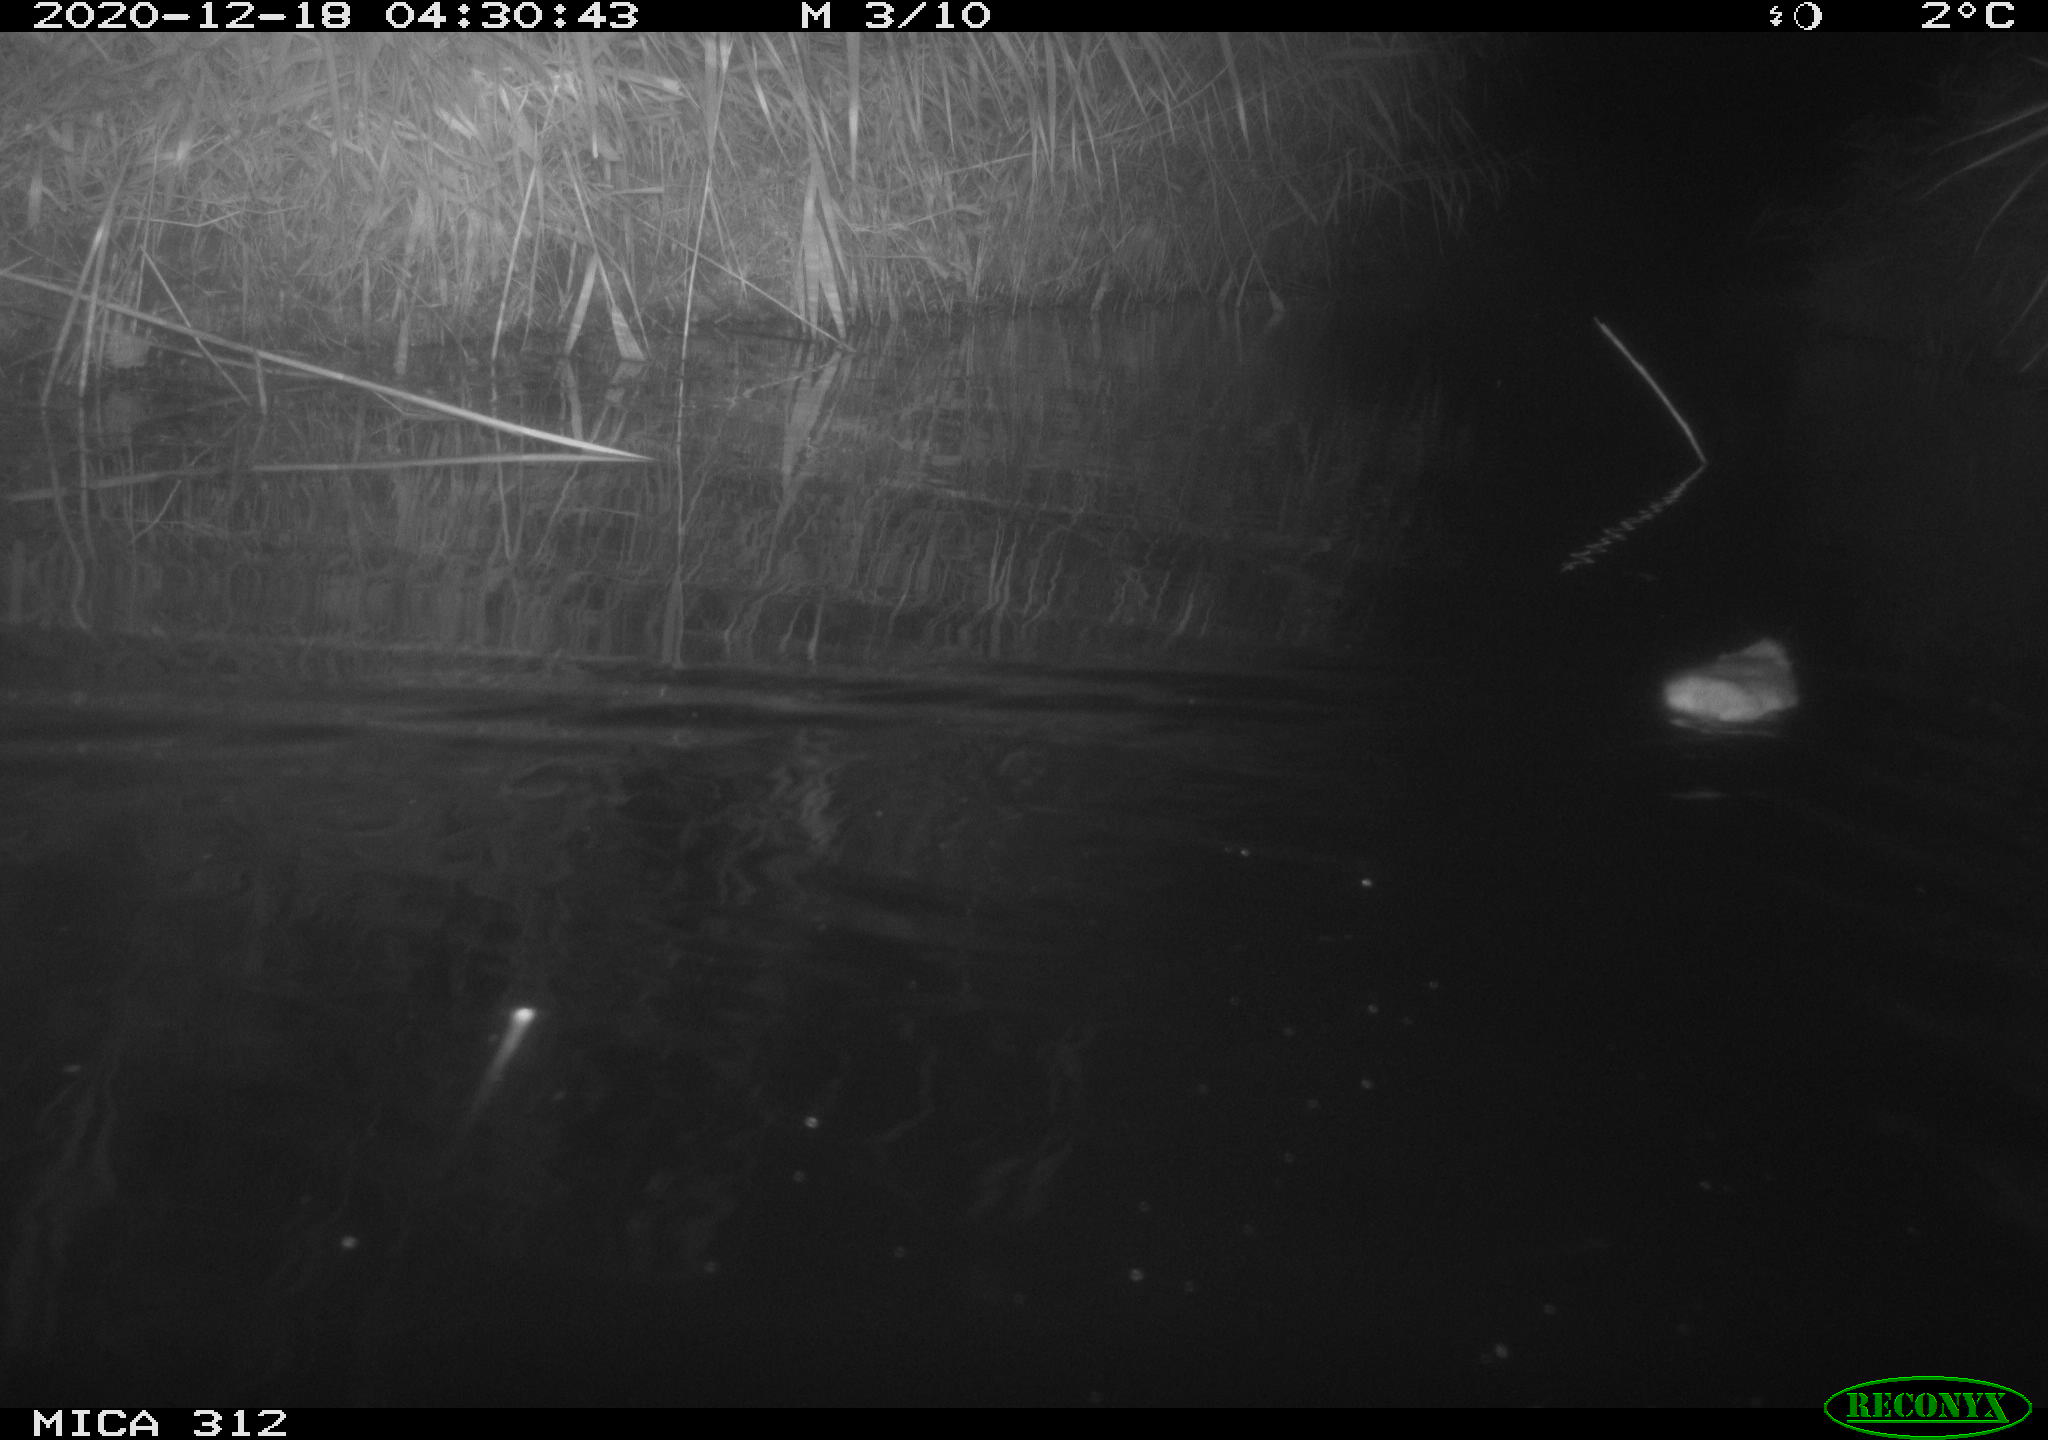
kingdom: Animalia
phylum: Chordata
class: Mammalia
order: Rodentia
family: Muridae
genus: Rattus
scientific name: Rattus norvegicus
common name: Brown rat
